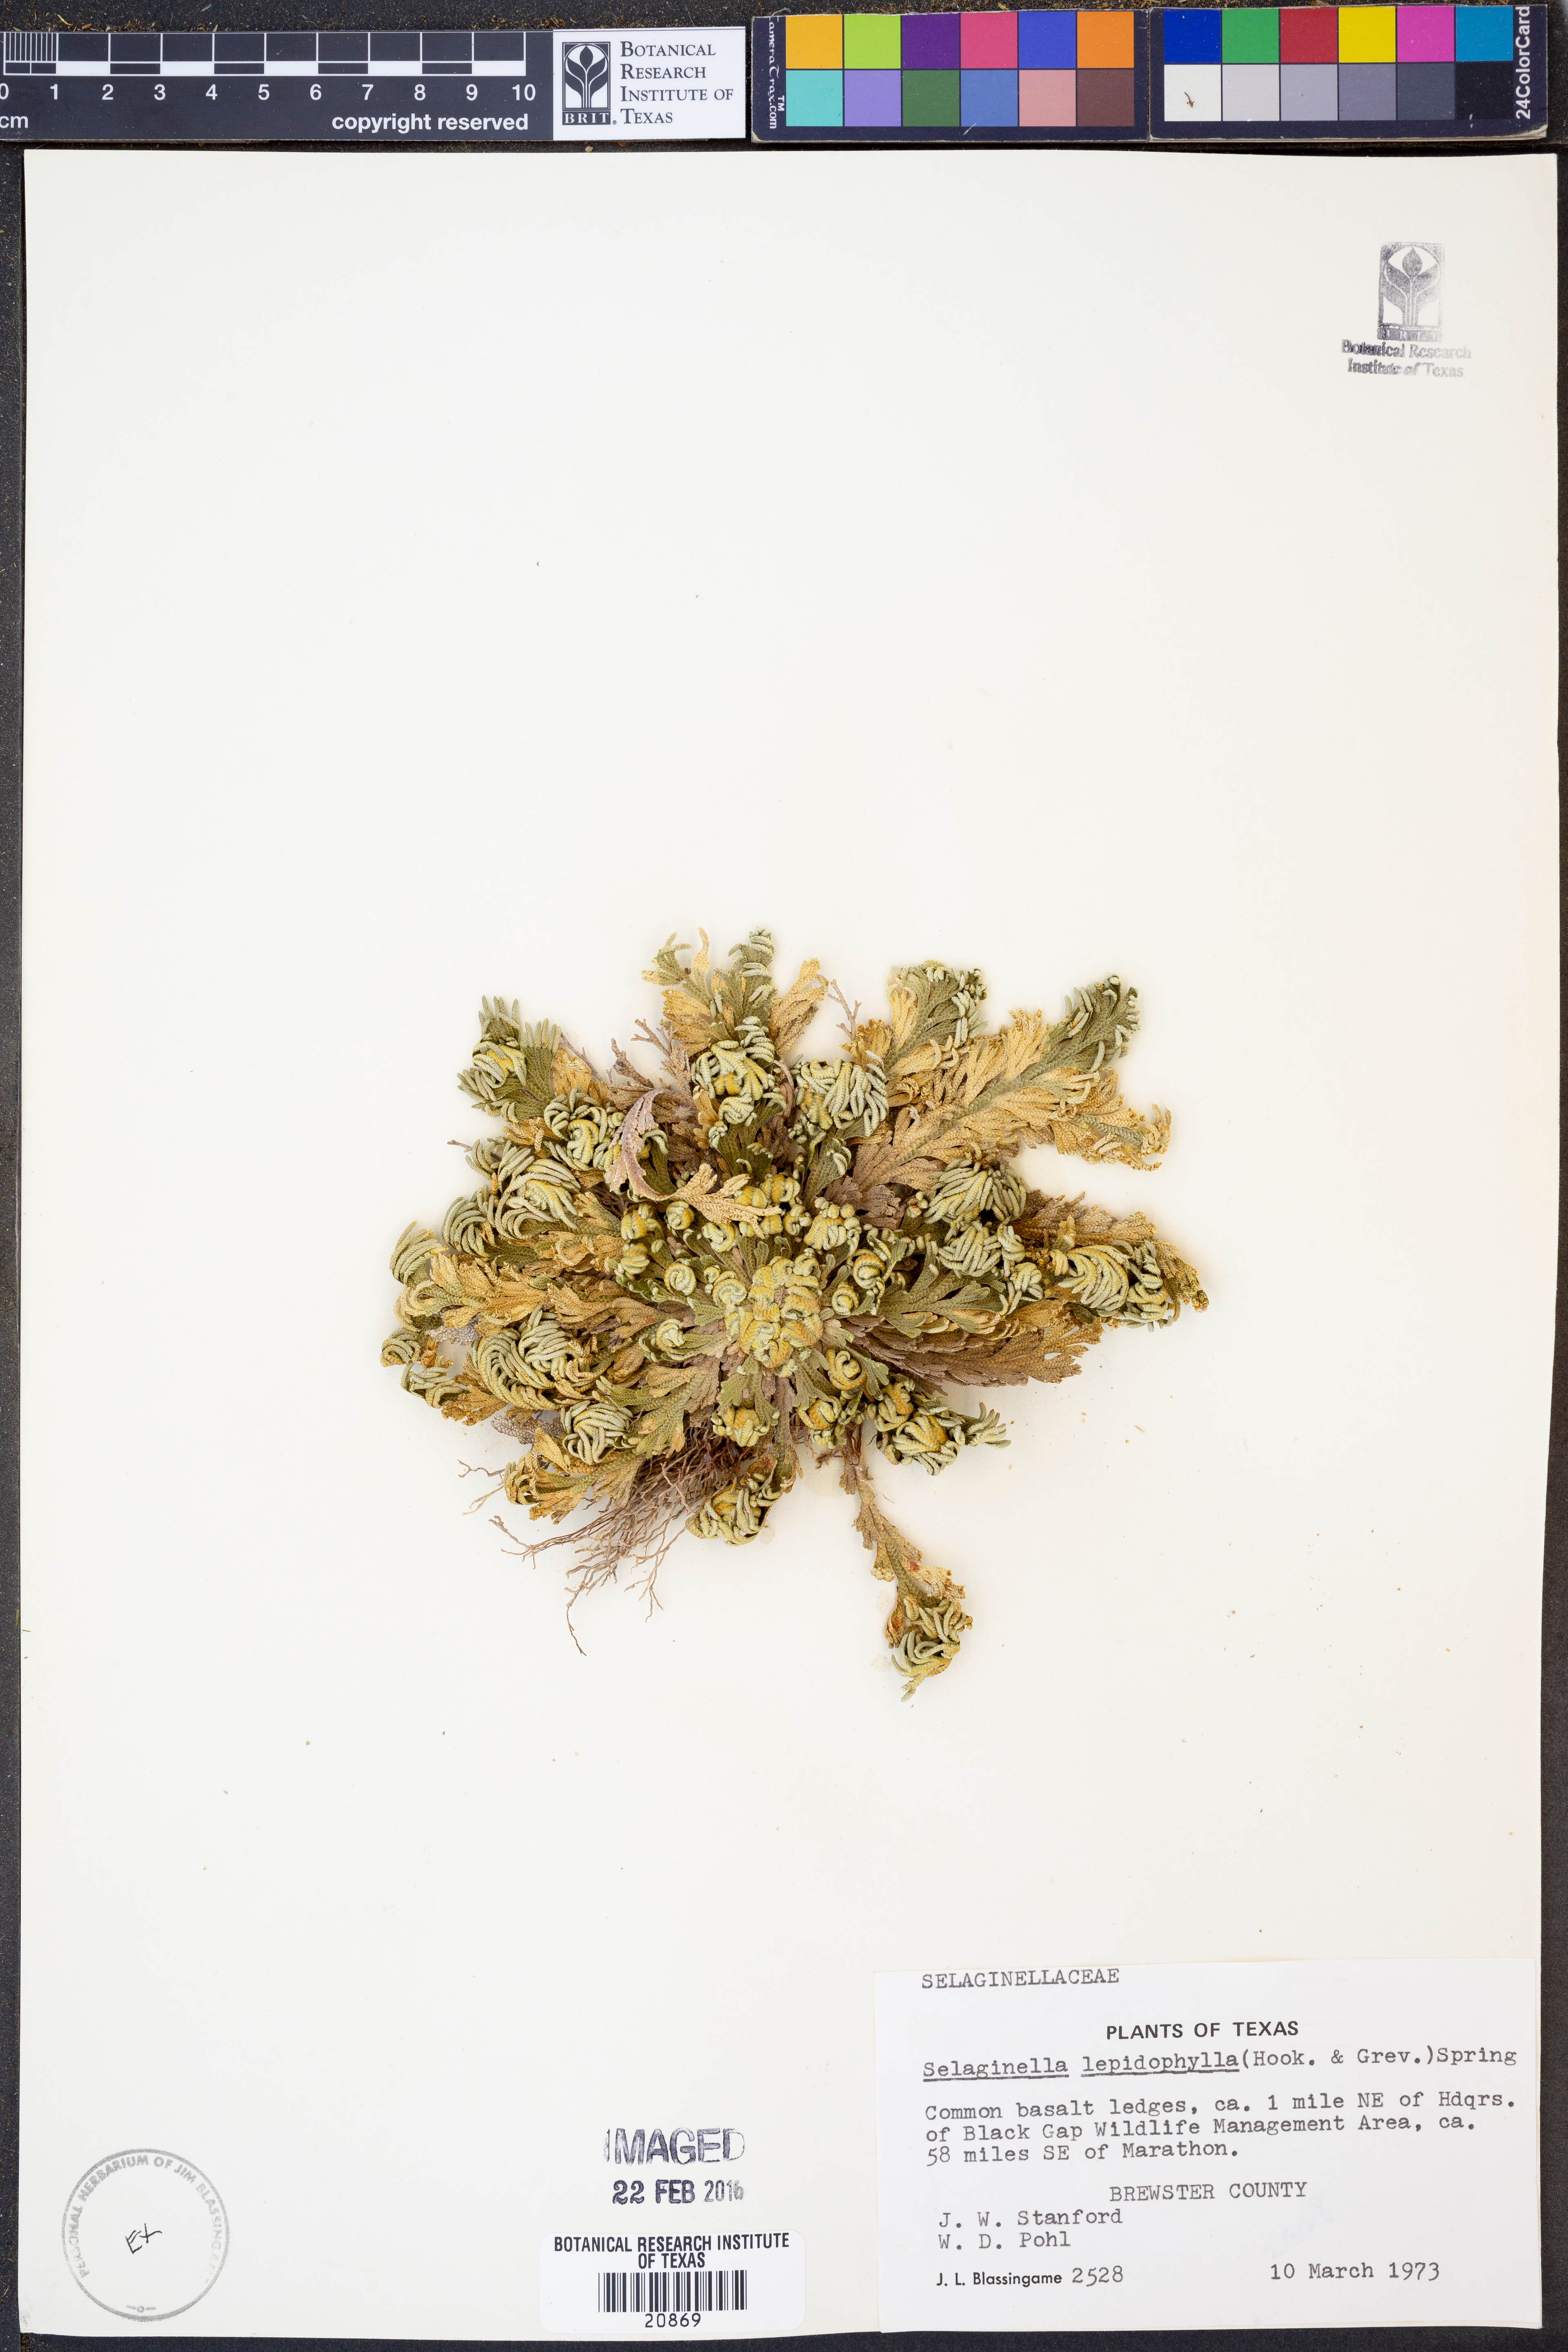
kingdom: Plantae
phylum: Tracheophyta
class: Lycopodiopsida
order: Selaginellales
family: Selaginellaceae
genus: Selaginella
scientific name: Selaginella lepidophylla
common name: Rose-of-jericho
